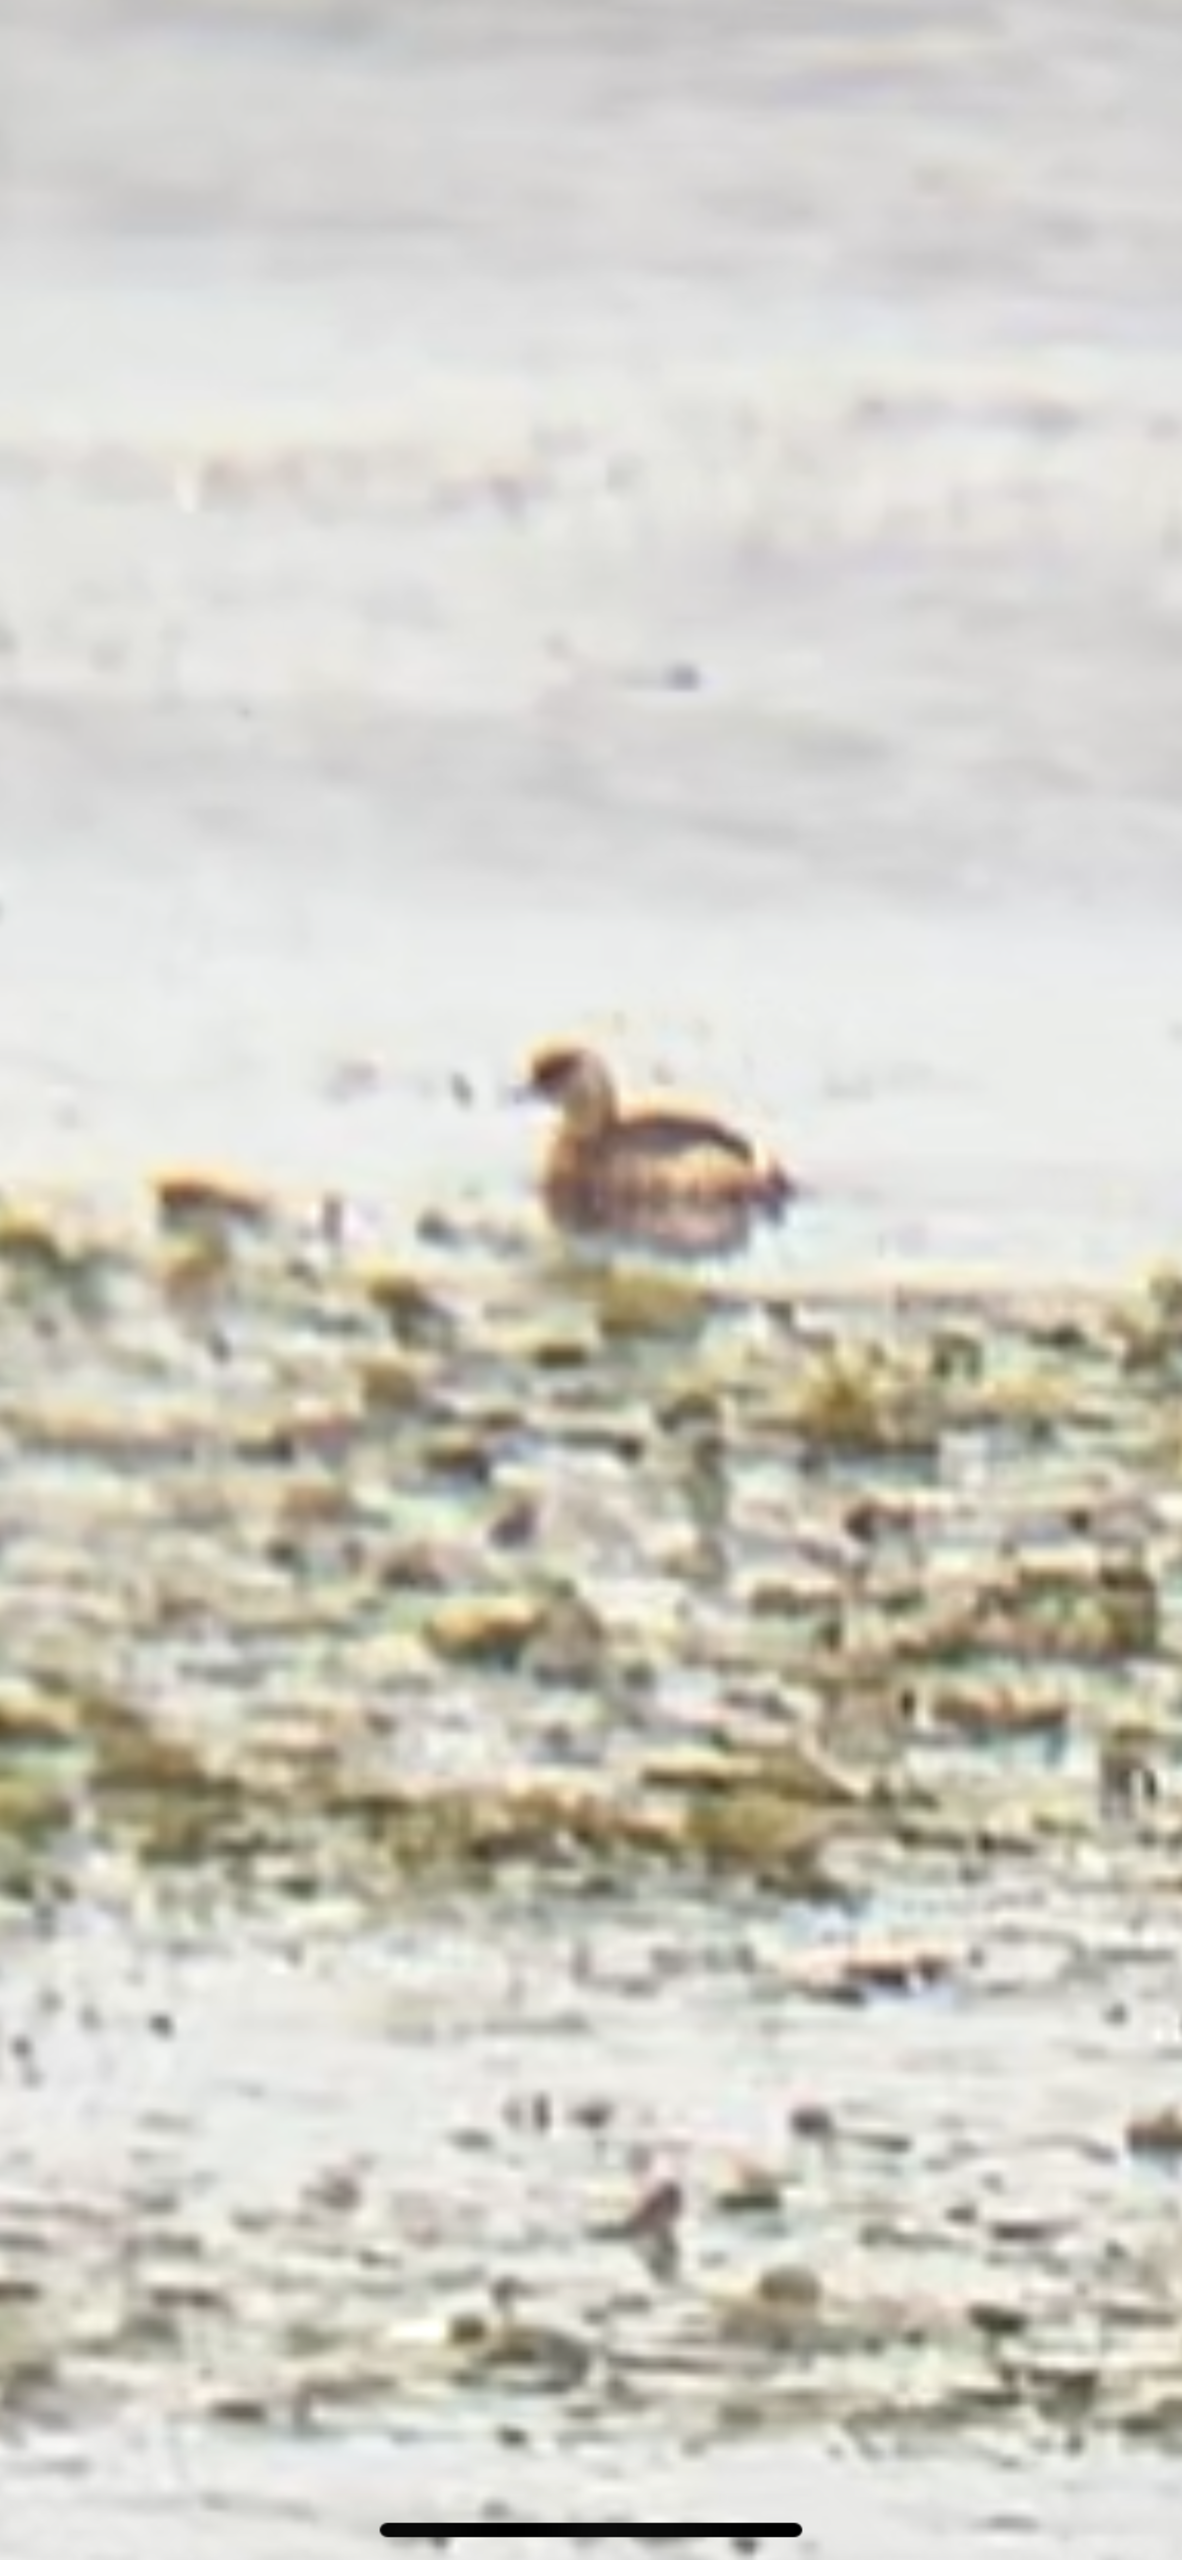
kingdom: Animalia
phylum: Chordata
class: Aves
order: Podicipediformes
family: Podicipedidae
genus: Tachybaptus
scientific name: Tachybaptus ruficollis
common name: Lille lappedykker
